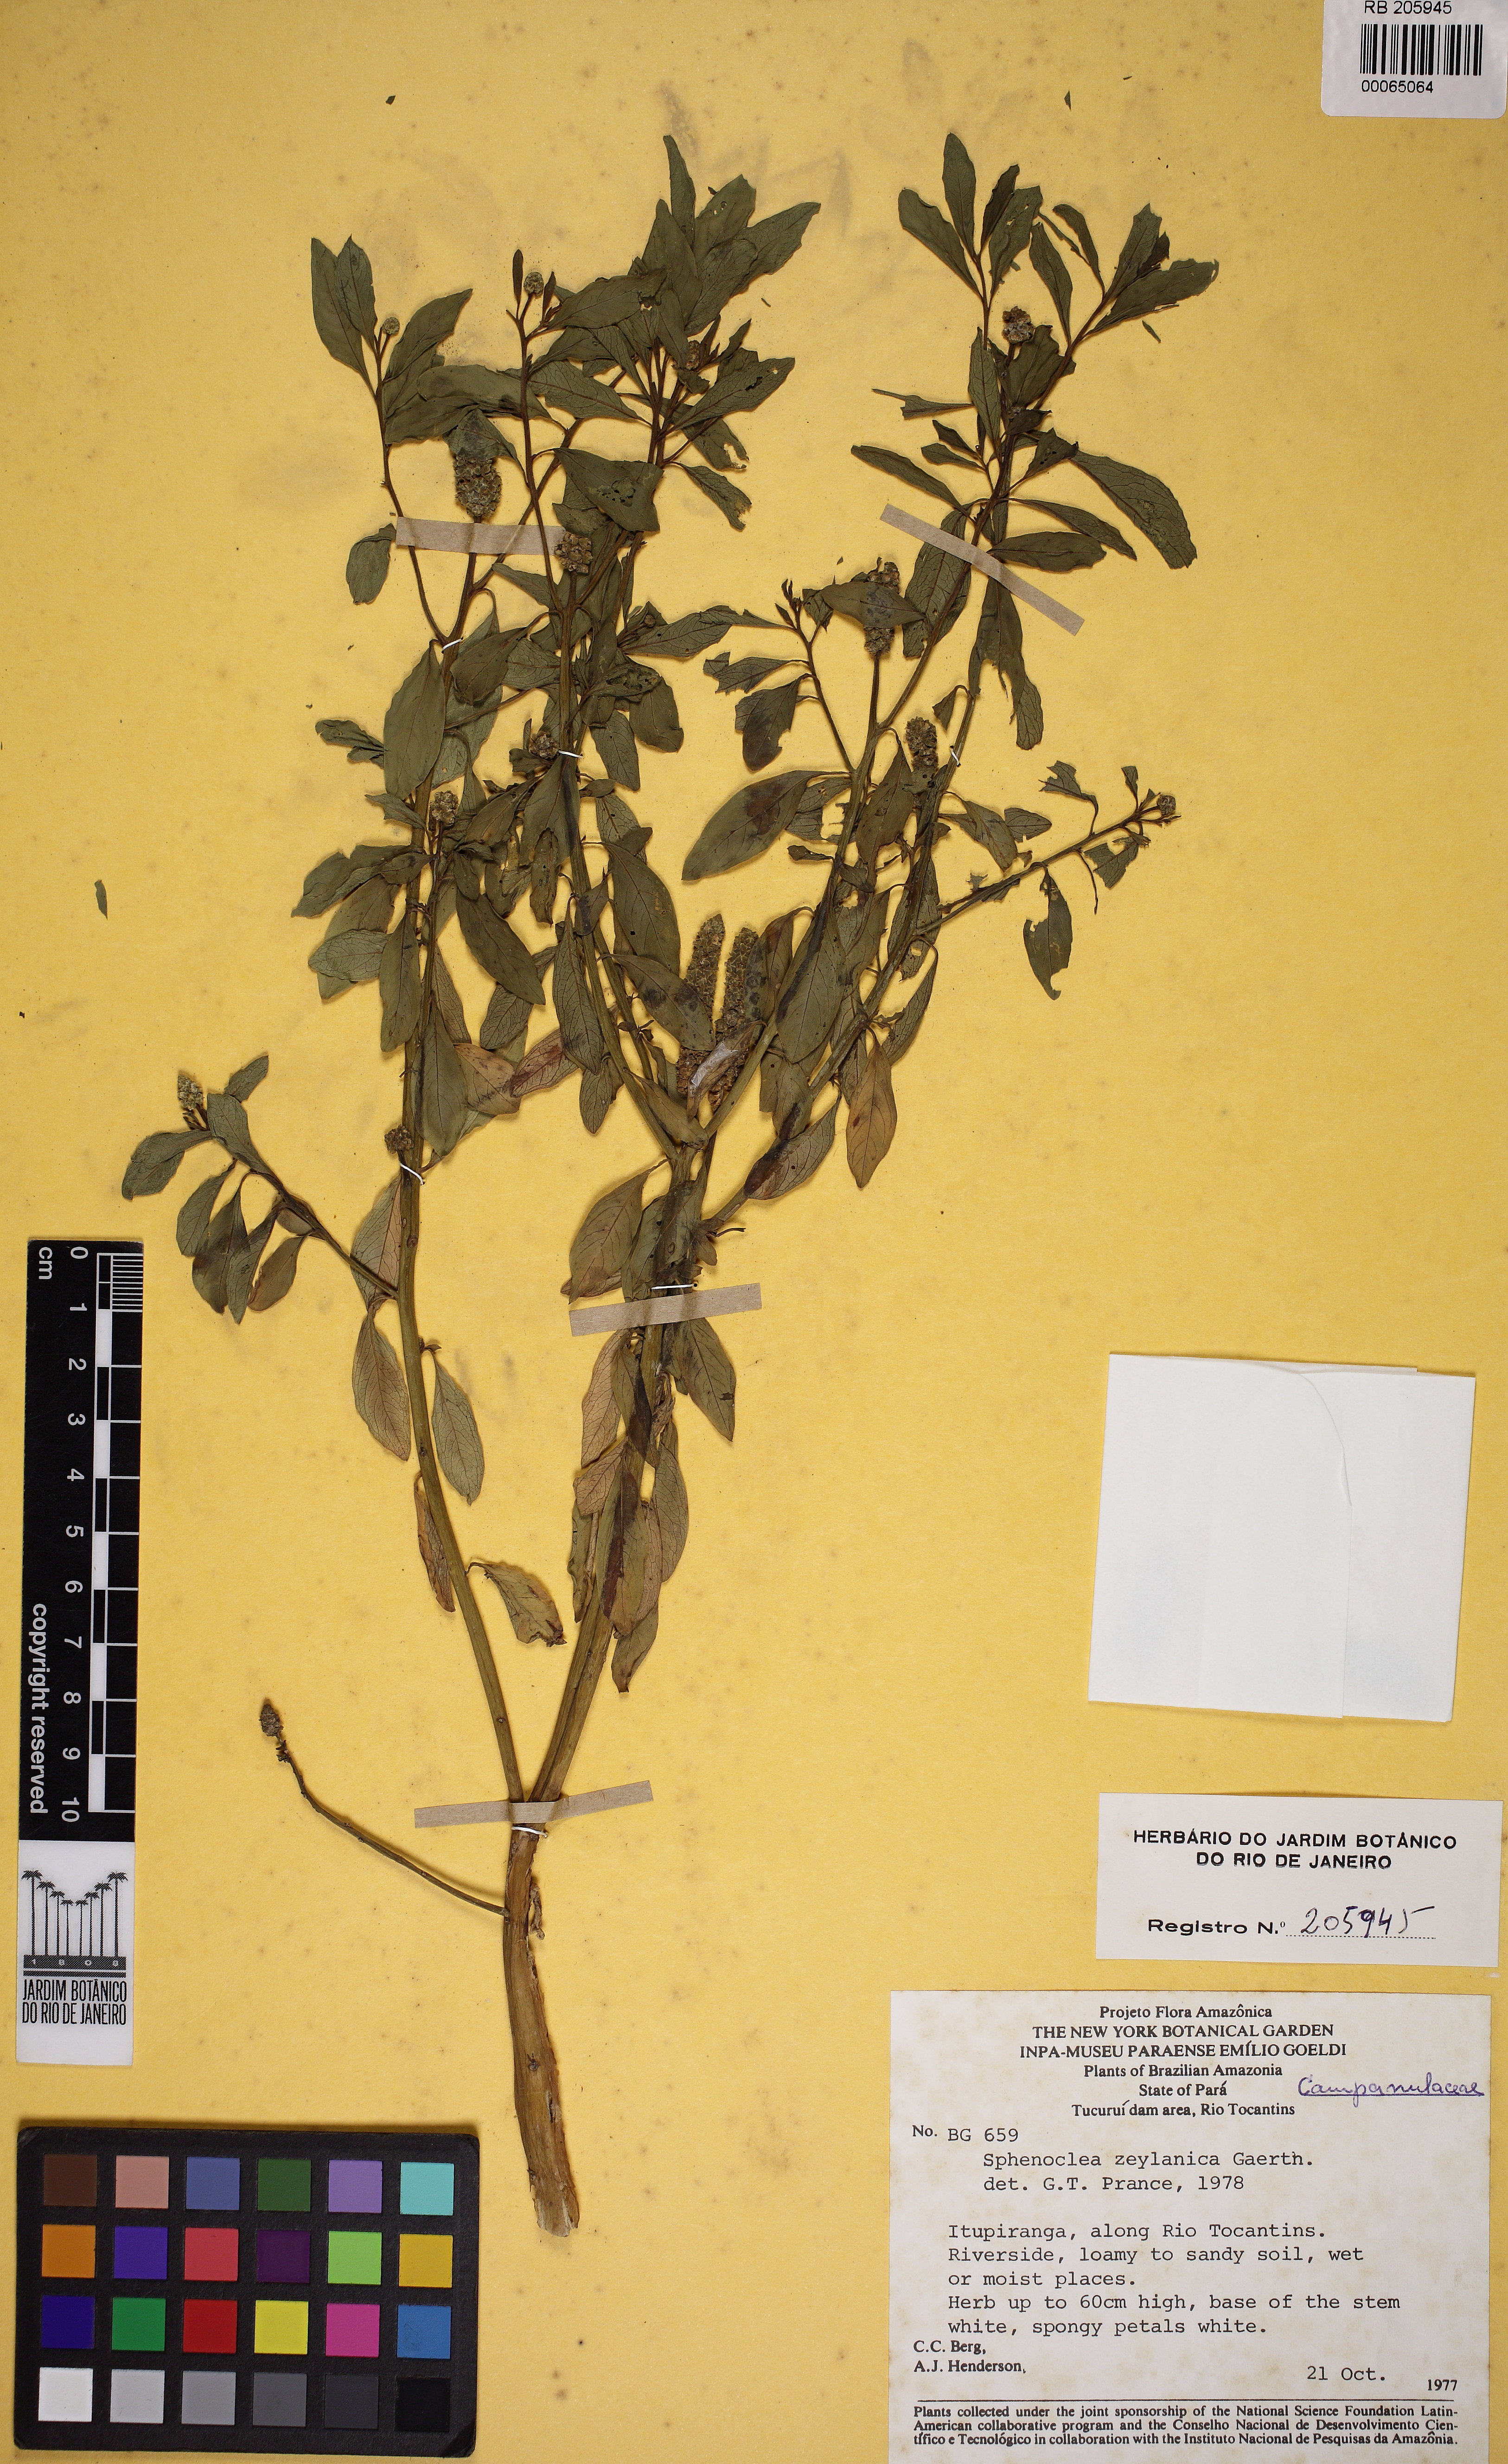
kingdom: Plantae
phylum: Tracheophyta
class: Magnoliopsida
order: Solanales
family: Sphenocleaceae
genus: Sphenoclea
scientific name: Sphenoclea zeylanica
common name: Chickenspike
